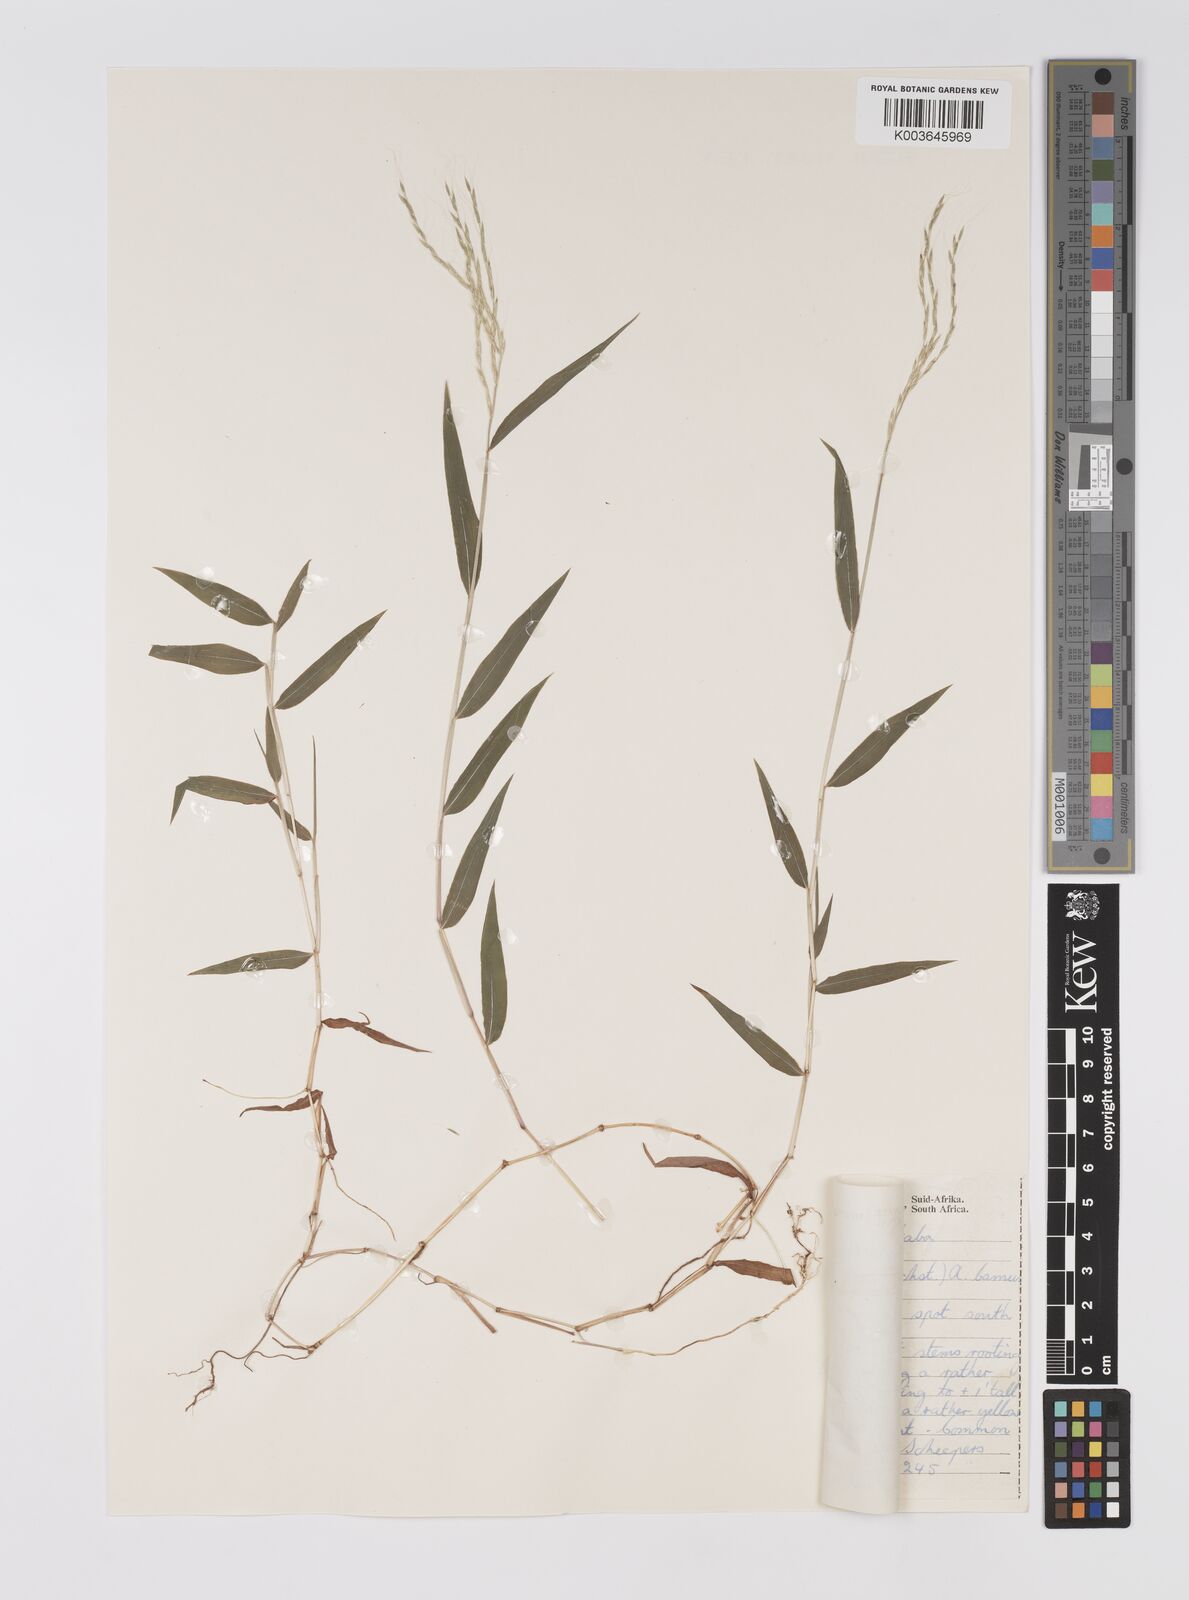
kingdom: Plantae
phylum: Tracheophyta
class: Liliopsida
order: Poales
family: Poaceae
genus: Microstegium
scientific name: Microstegium nudum
